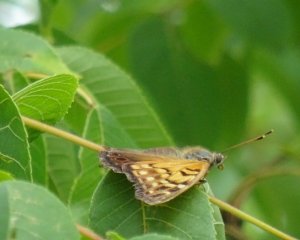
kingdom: Animalia
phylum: Arthropoda
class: Insecta
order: Lepidoptera
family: Nymphalidae
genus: Asterocampa
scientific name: Asterocampa clyton
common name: Tawny Emperor
